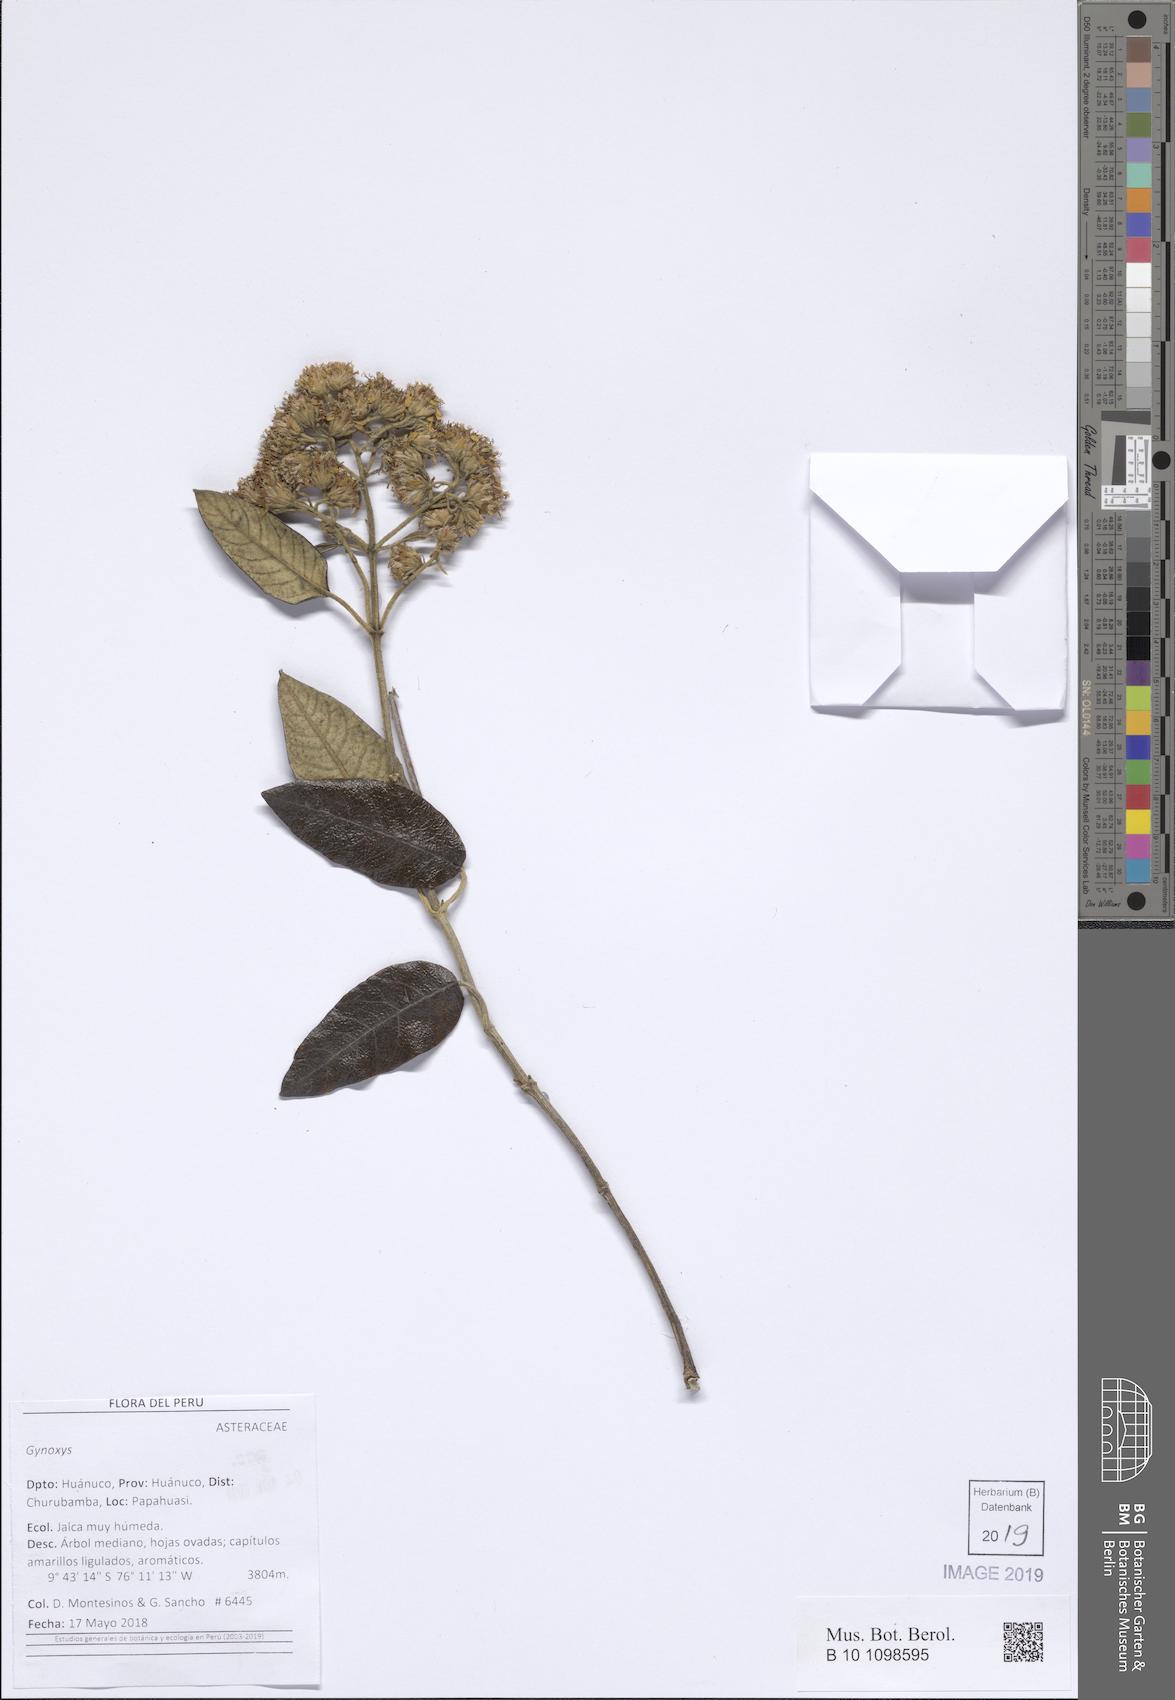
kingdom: Plantae
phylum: Tracheophyta
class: Magnoliopsida
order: Asterales
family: Asteraceae
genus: Gynoxys
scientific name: Gynoxys capituliparva
